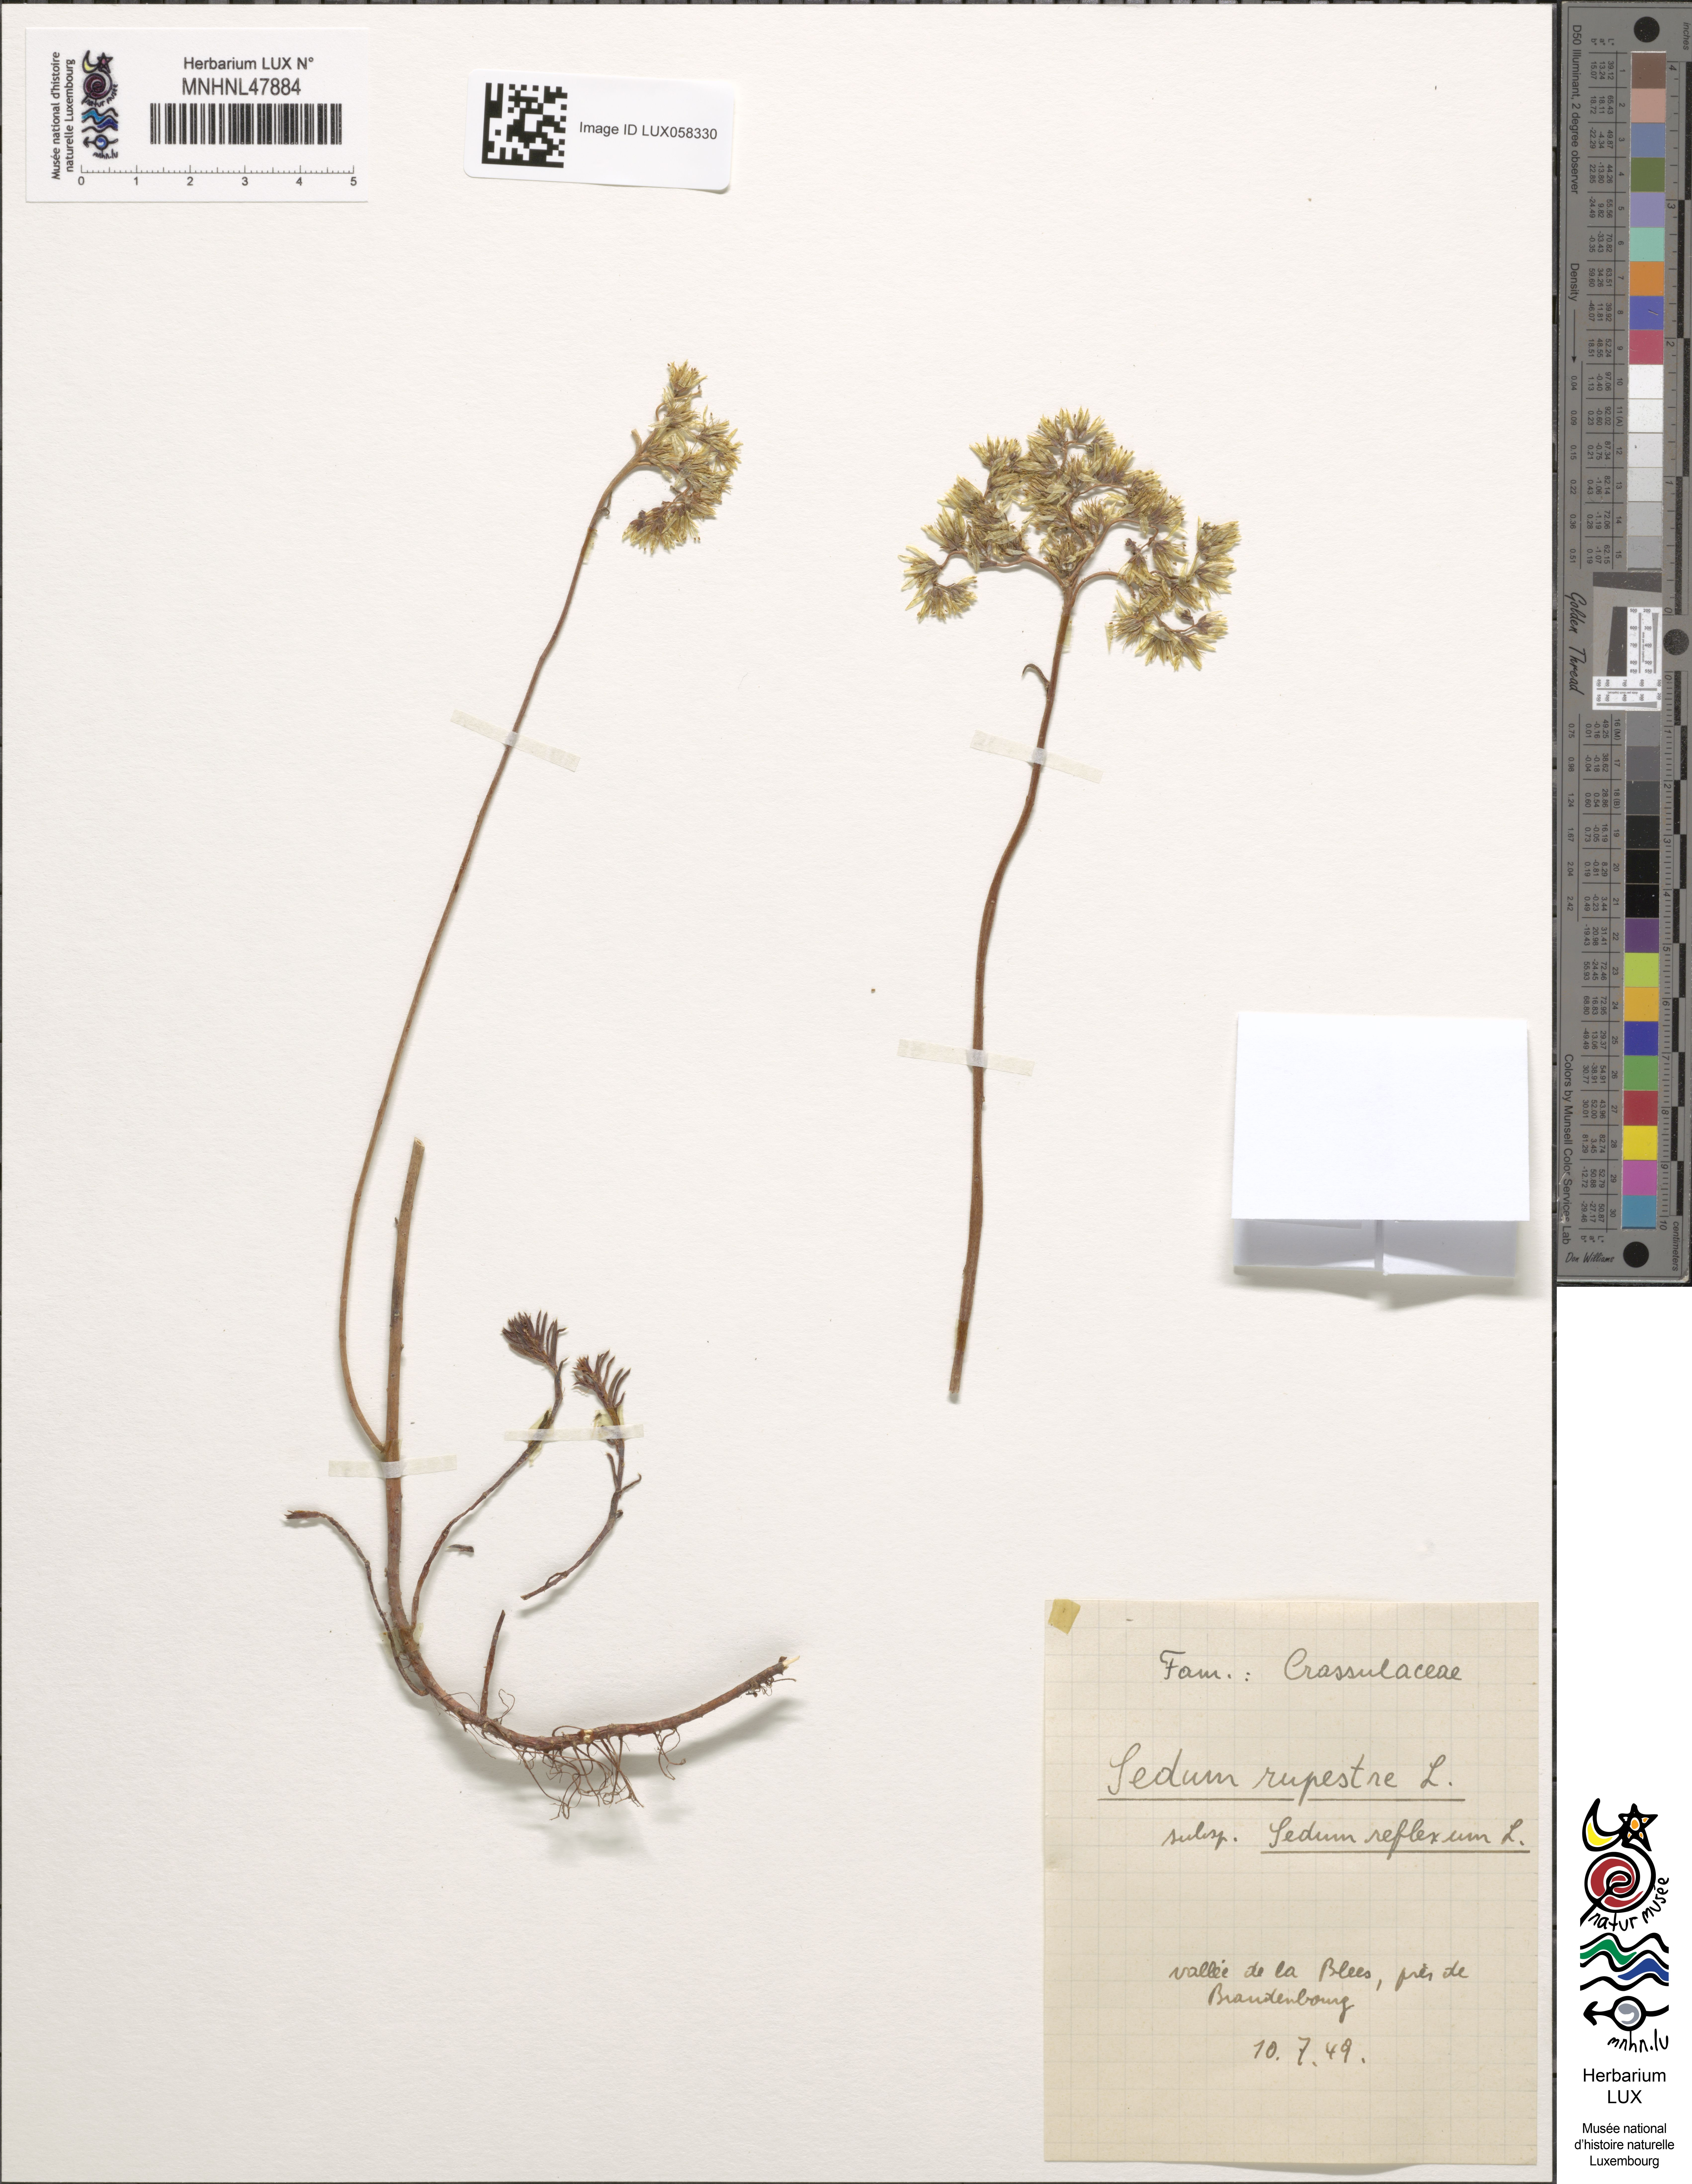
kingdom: Plantae
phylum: Tracheophyta
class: Magnoliopsida
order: Saxifragales
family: Crassulaceae
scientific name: Crassulaceae
